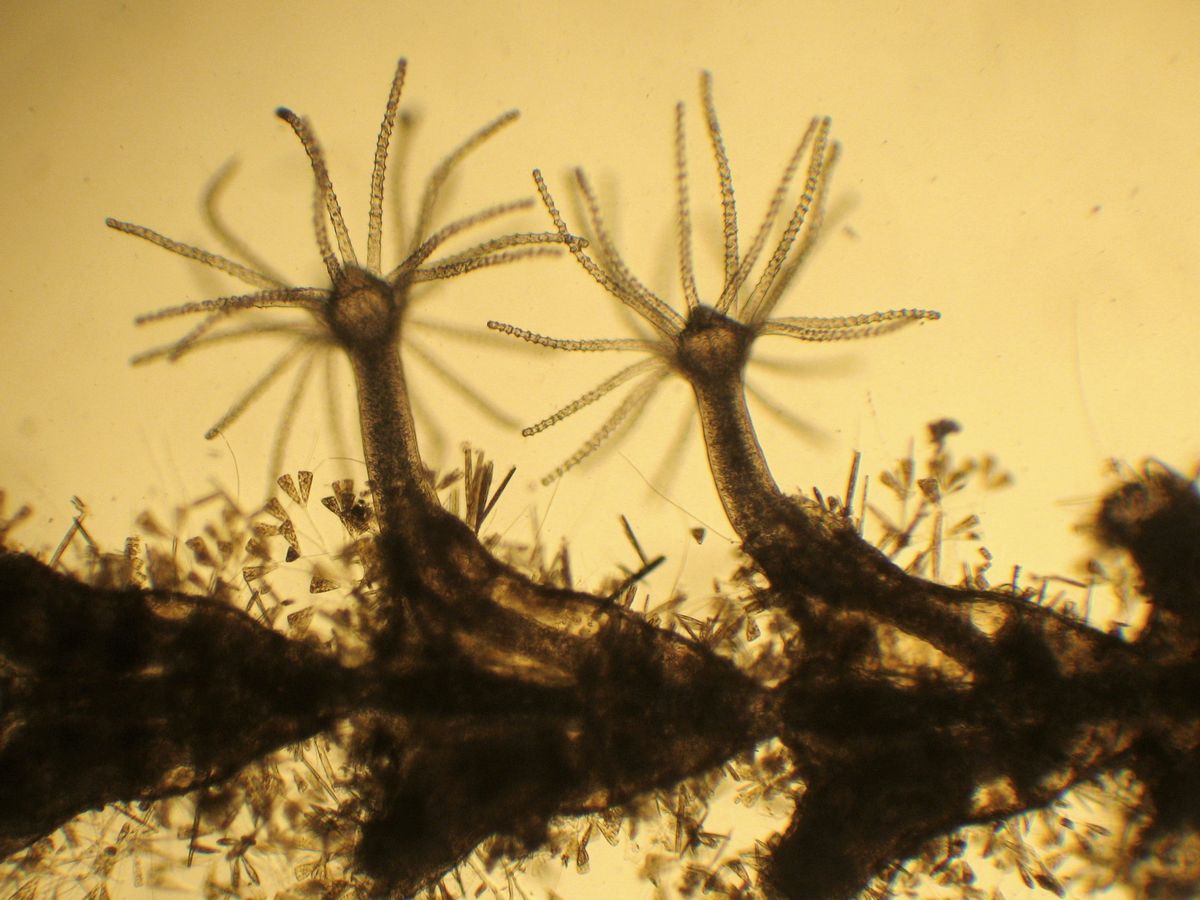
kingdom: Animalia
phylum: Cnidaria
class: Hydrozoa
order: Leptothecata
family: Sertulariidae
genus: Dynamena
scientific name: Dynamena pumila
